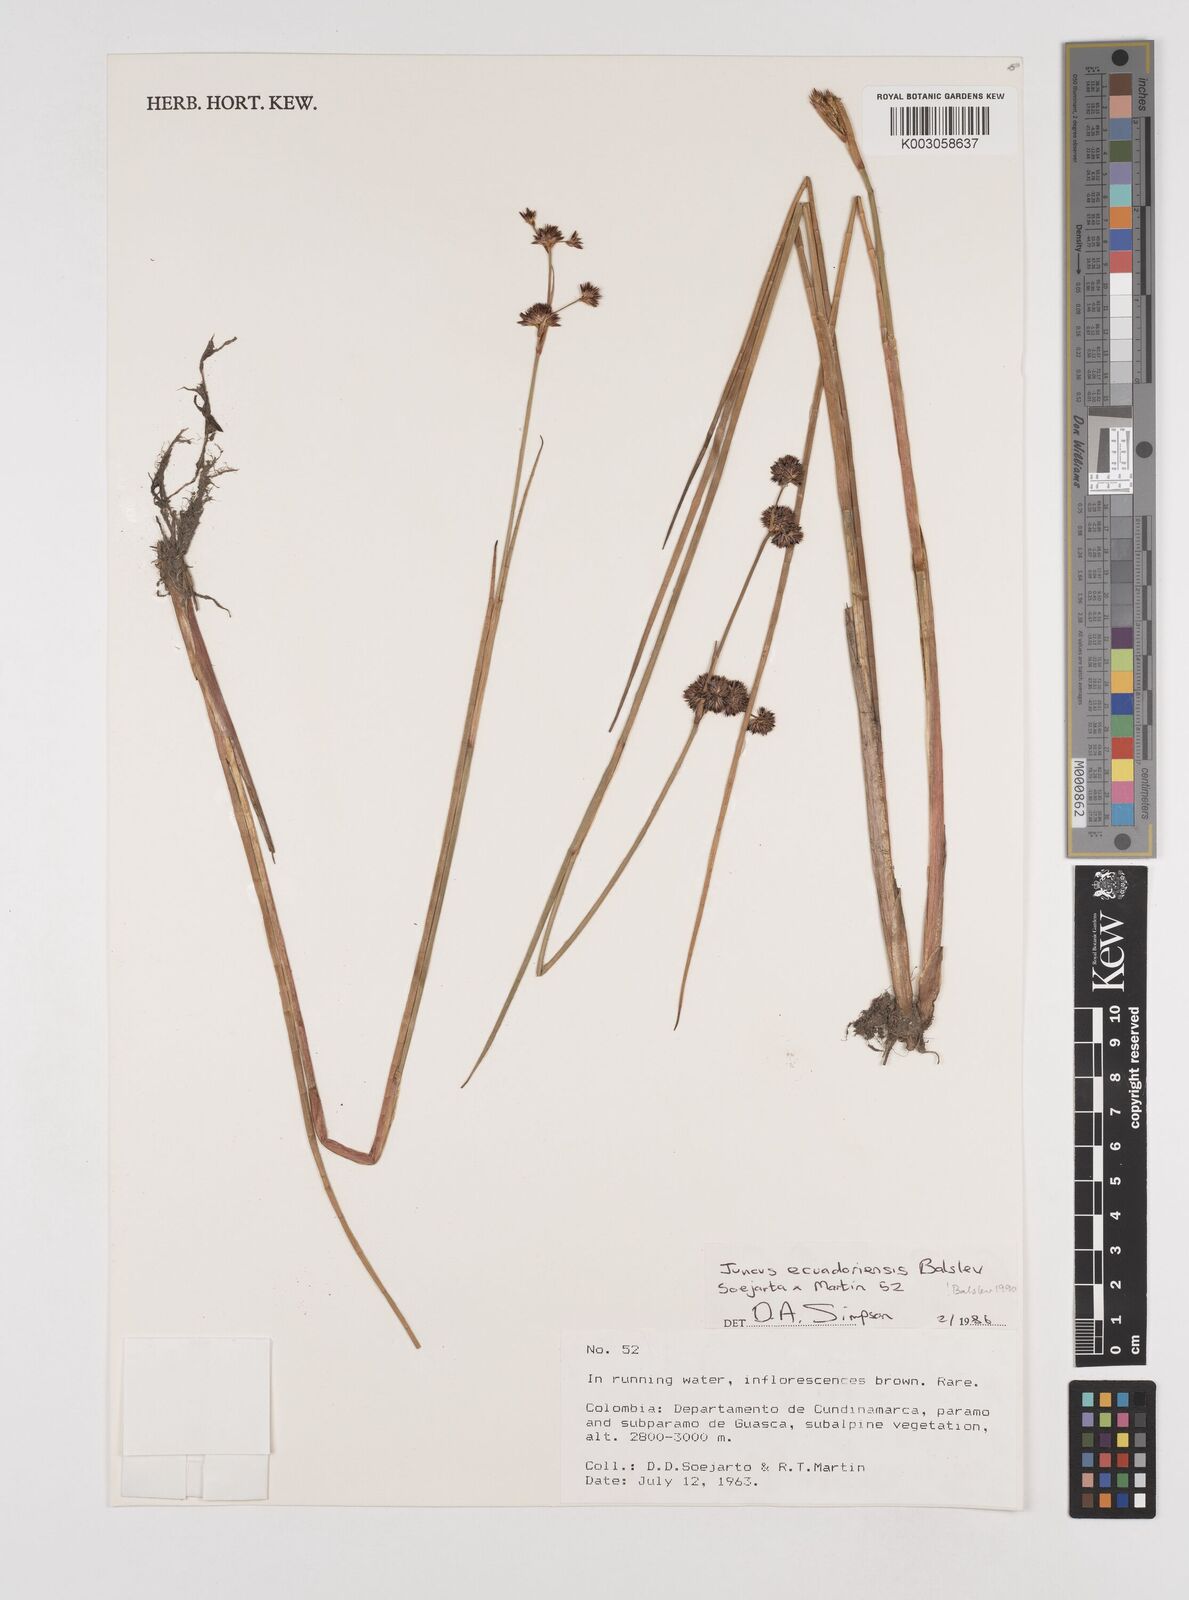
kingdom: Plantae
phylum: Tracheophyta
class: Liliopsida
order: Poales
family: Juncaceae
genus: Juncus
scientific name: Juncus ecuadoriensis
